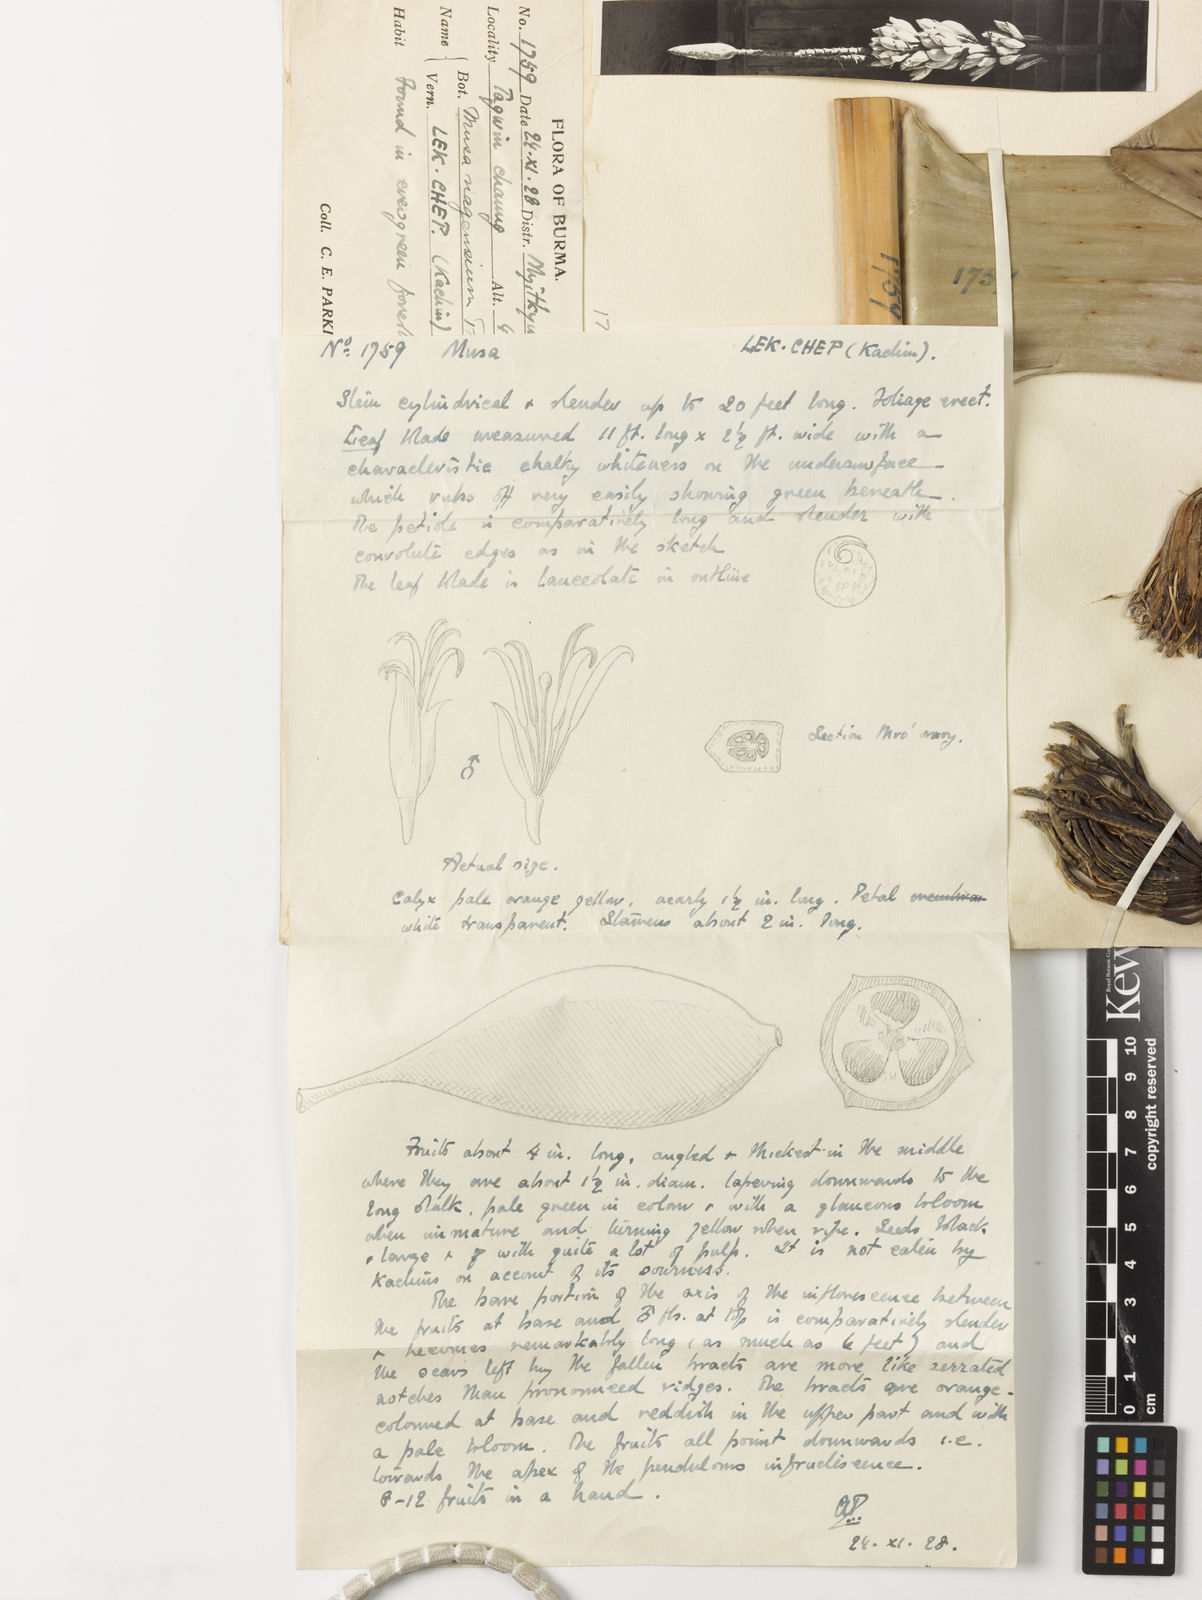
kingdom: Plantae
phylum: Tracheophyta
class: Liliopsida
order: Zingiberales
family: Musaceae
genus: Musa
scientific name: Musa nagensium
